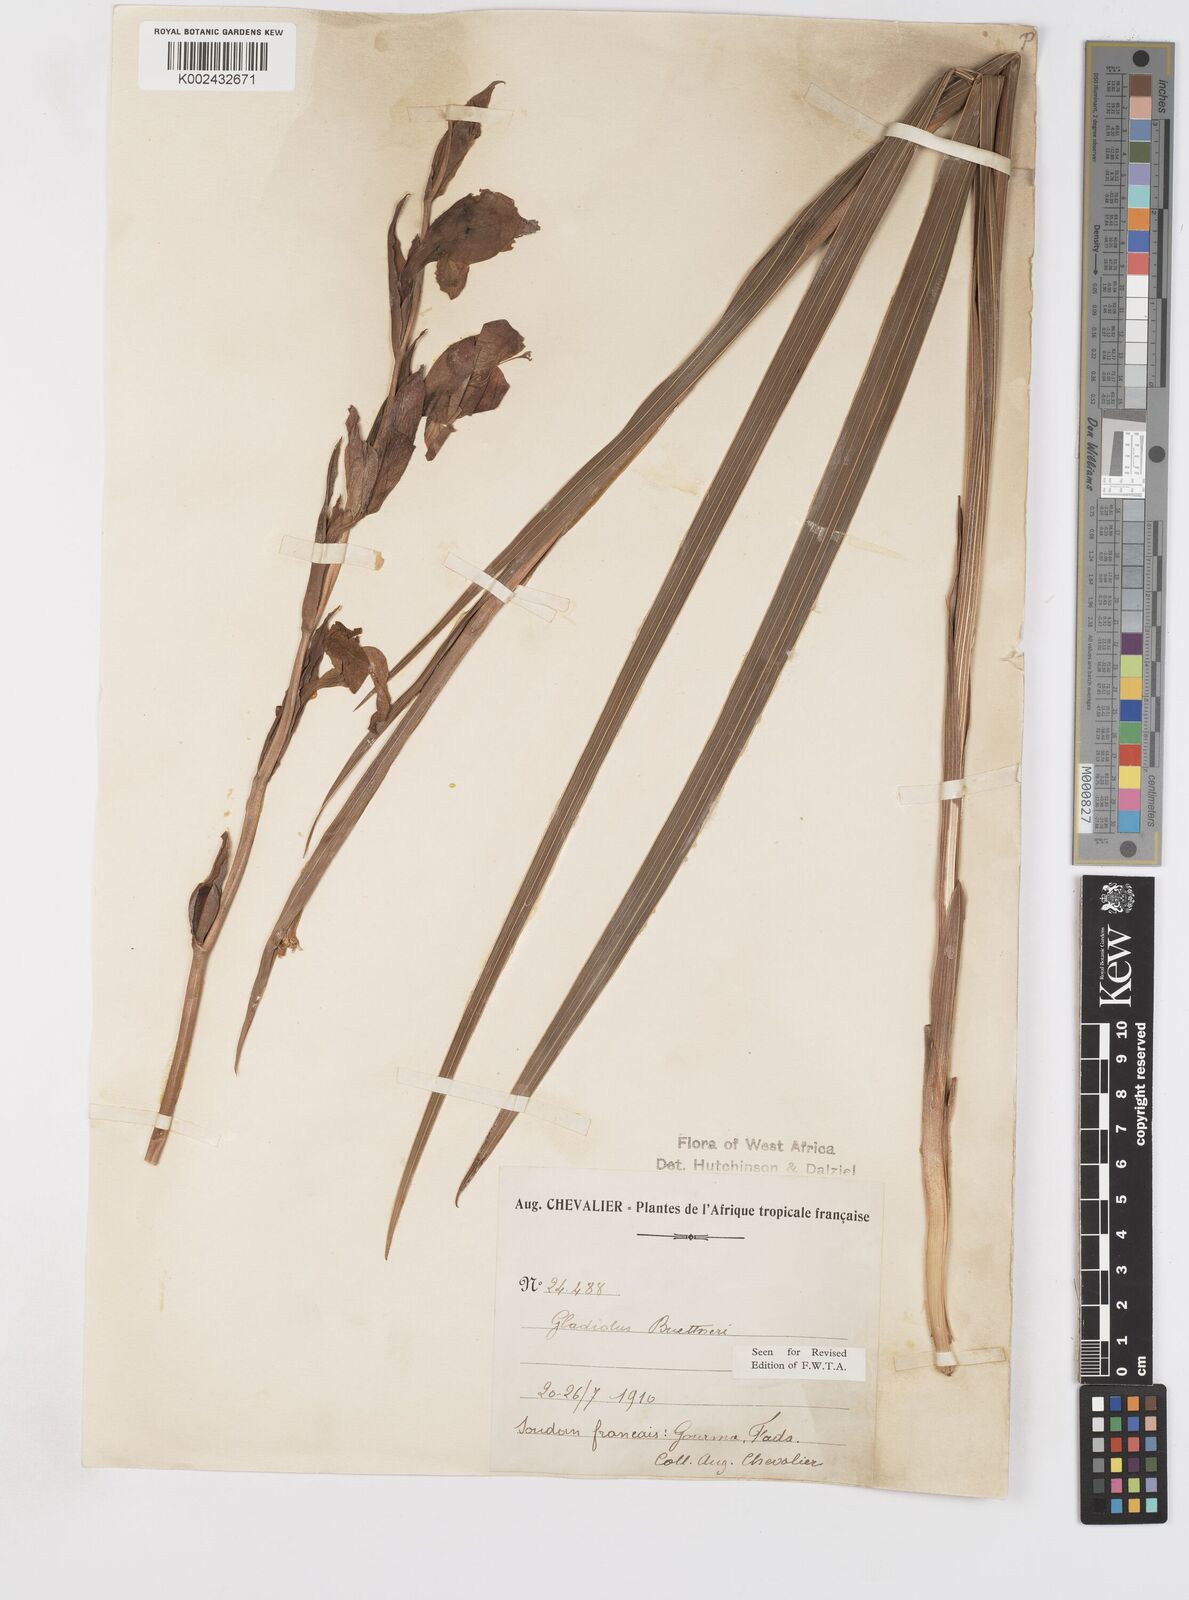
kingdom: Plantae
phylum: Tracheophyta
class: Liliopsida
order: Asparagales
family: Iridaceae
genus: Gladiolus
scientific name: Gladiolus dalenii
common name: Cornflag
